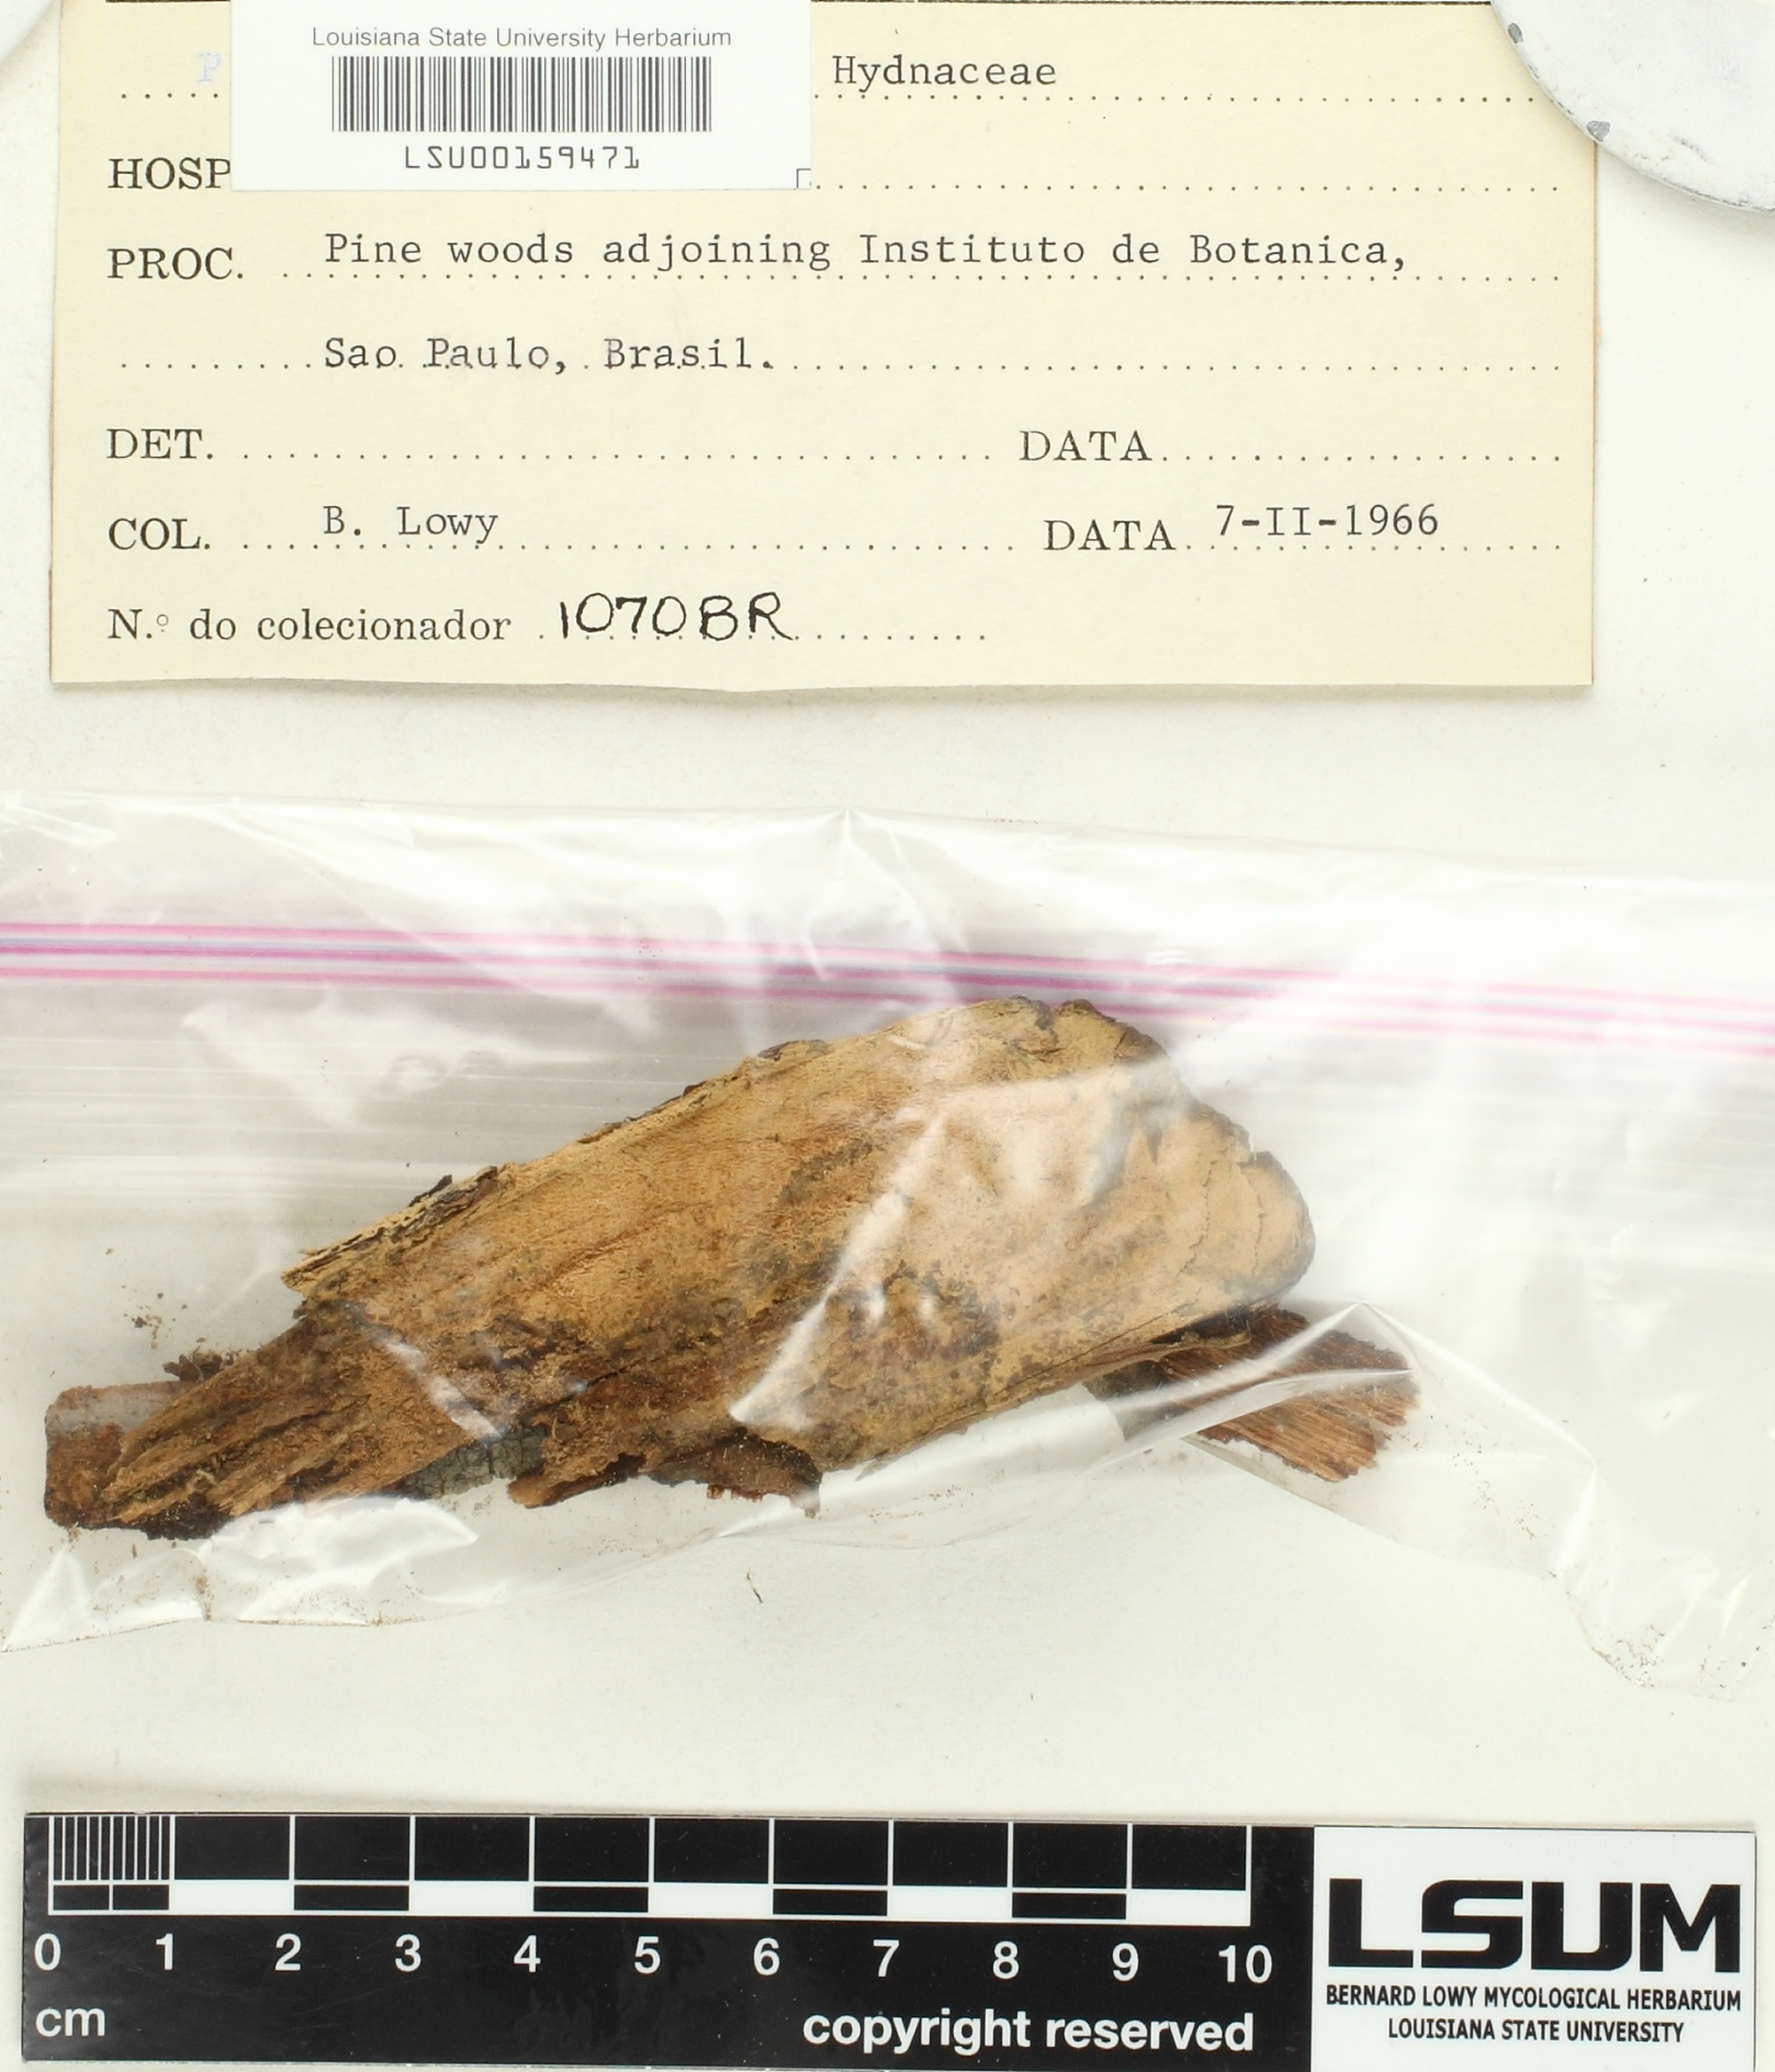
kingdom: Fungi
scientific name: Fungi
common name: Fungi
